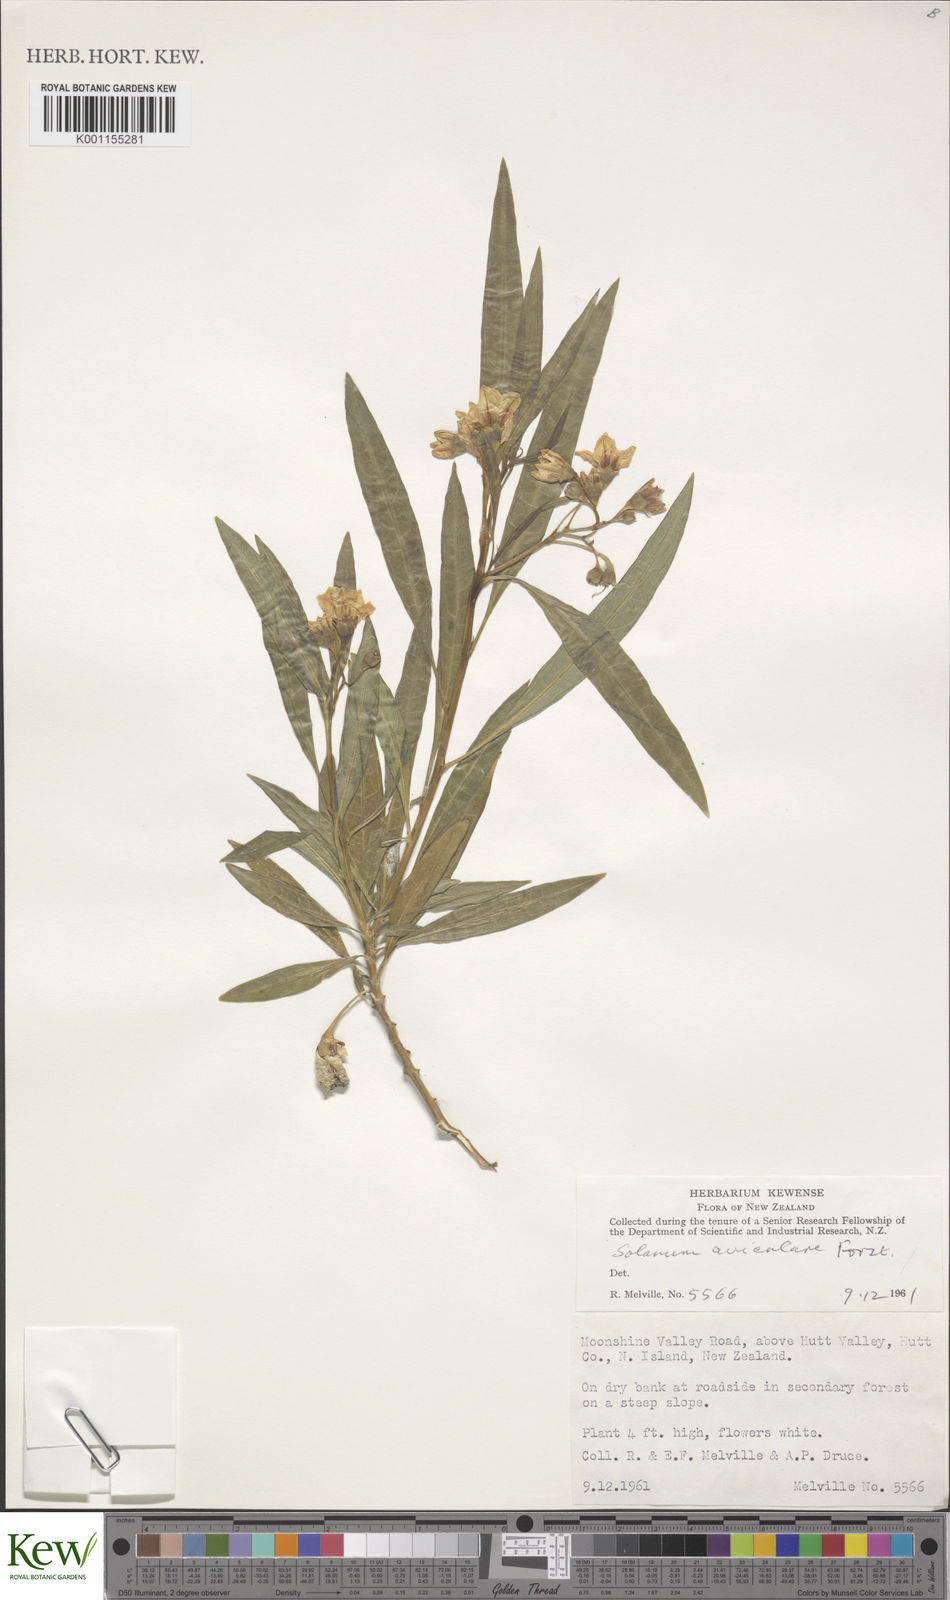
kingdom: Plantae
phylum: Tracheophyta
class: Magnoliopsida
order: Solanales
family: Solanaceae
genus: Solanum
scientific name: Solanum aviculare
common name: New zealand nightshade
